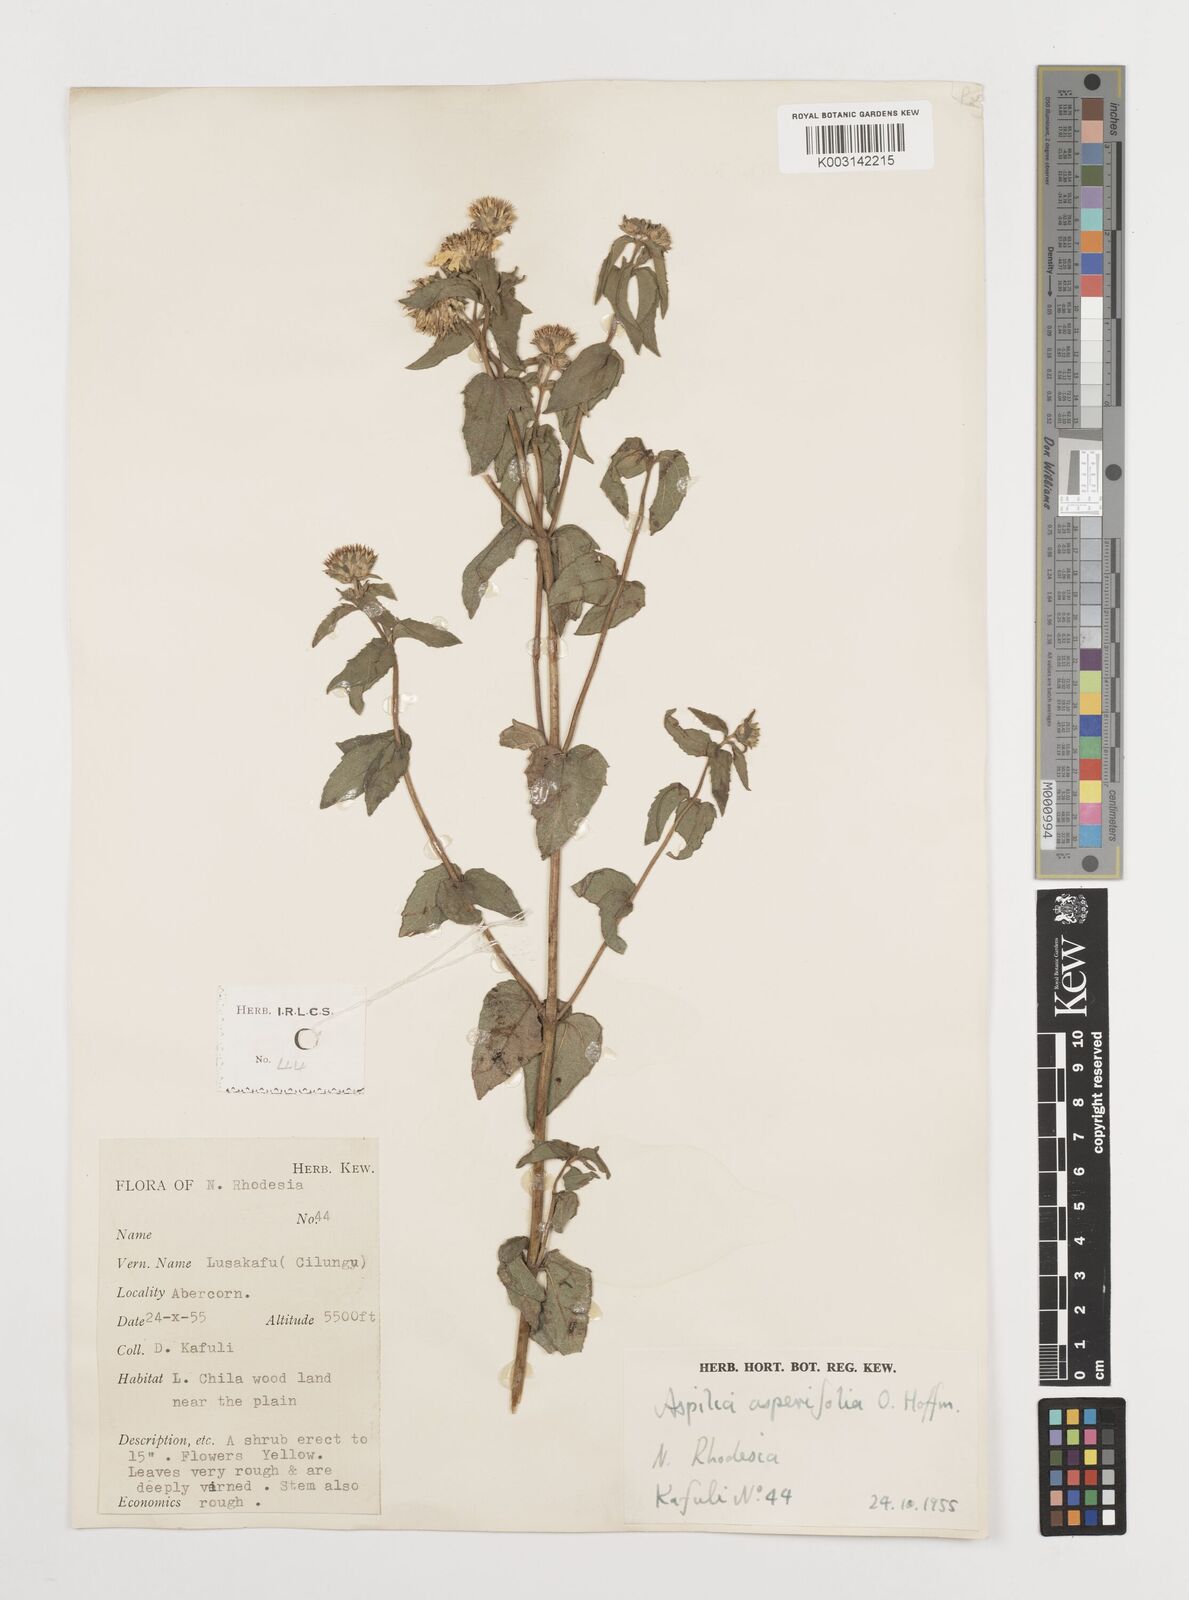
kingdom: Plantae
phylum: Tracheophyta
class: Magnoliopsida
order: Asterales
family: Asteraceae
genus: Aspilia
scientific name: Aspilia pluriseta
